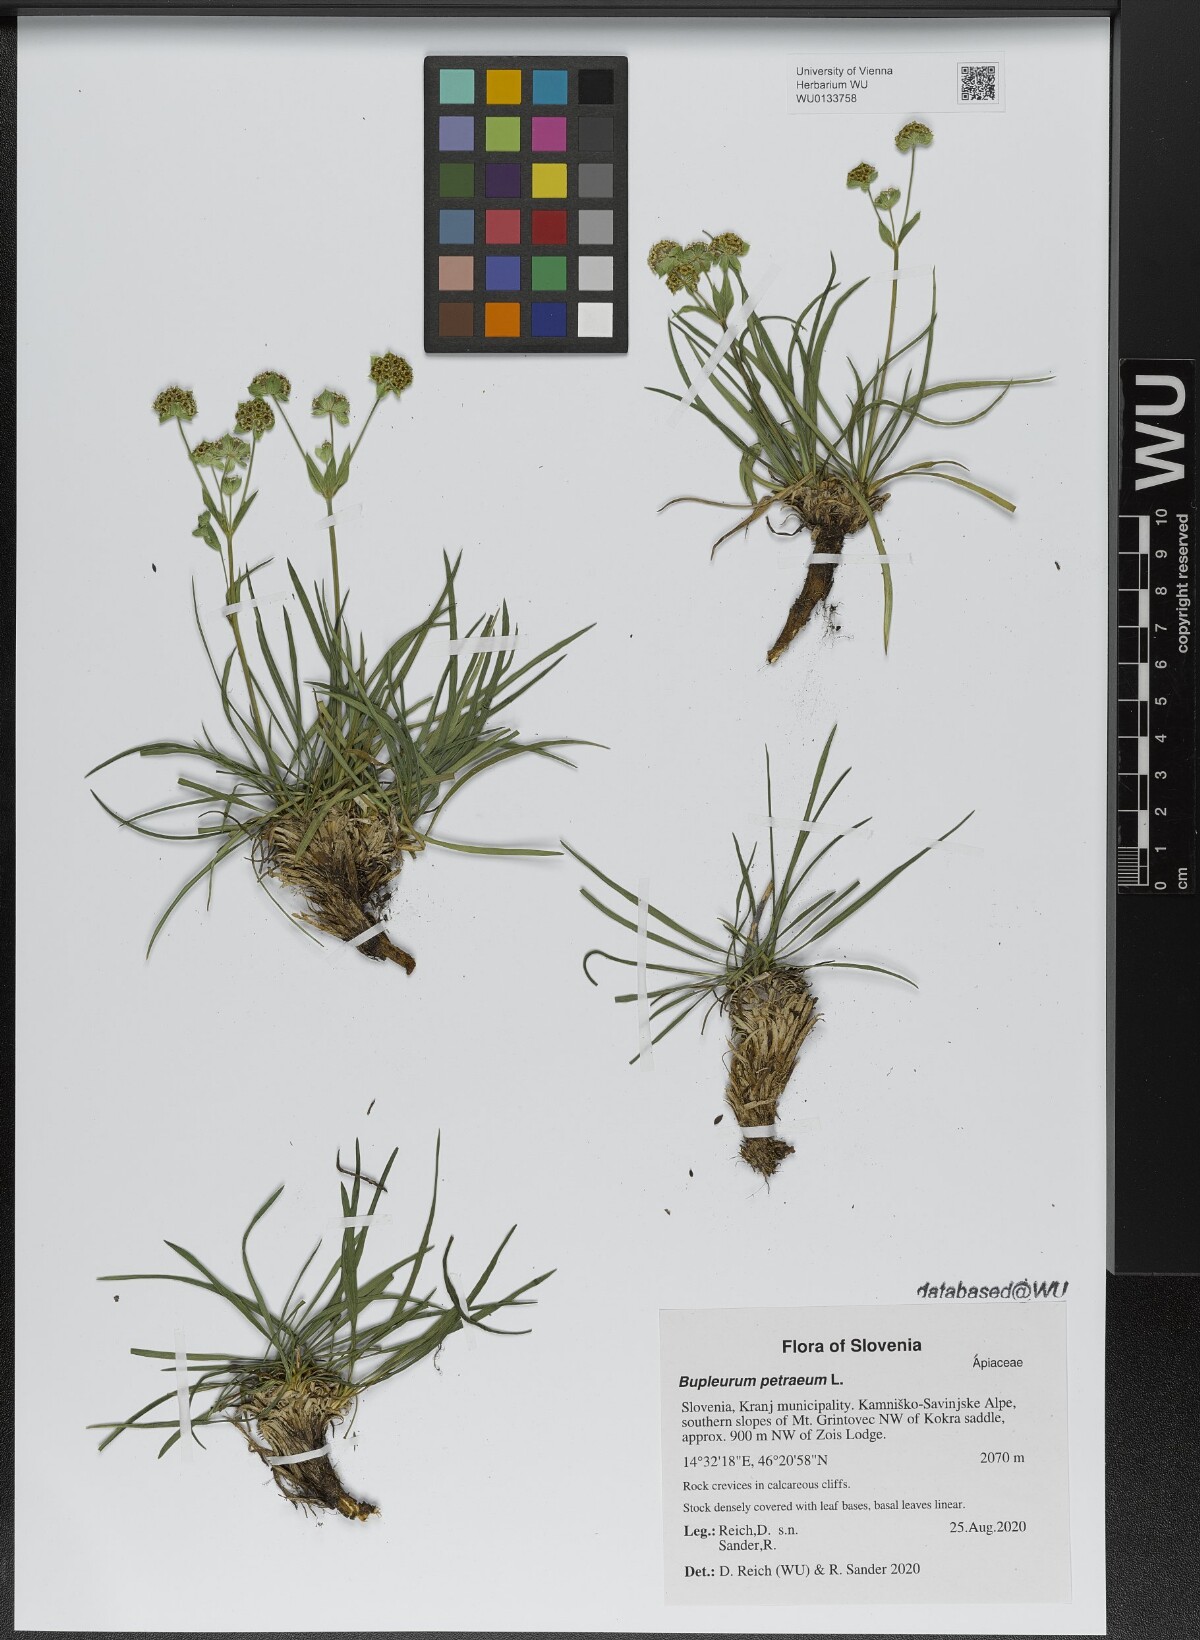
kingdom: Plantae
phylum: Tracheophyta
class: Magnoliopsida
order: Apiales
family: Apiaceae
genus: Bupleurum
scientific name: Bupleurum petraeum
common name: Rock hare's-ear
